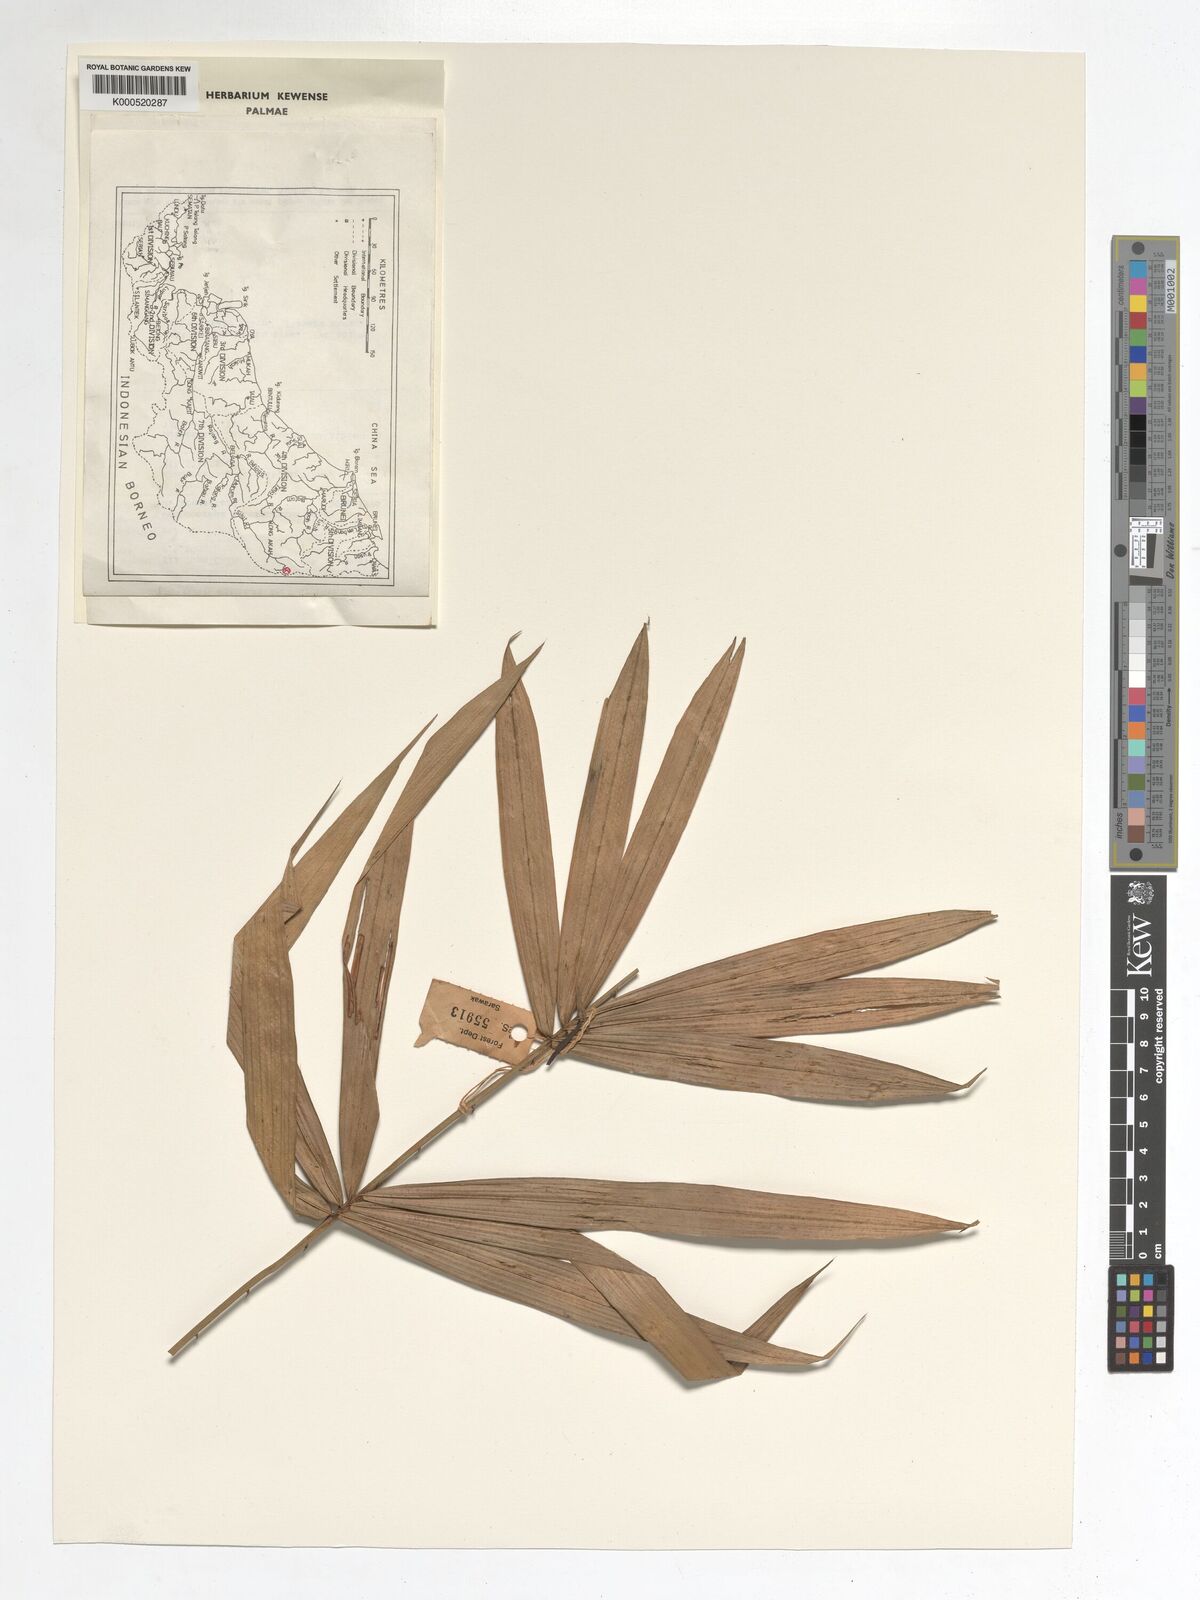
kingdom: Plantae
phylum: Tracheophyta
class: Liliopsida
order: Arecales
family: Arecaceae
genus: Calamus
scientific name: Calamus asteracanthus
